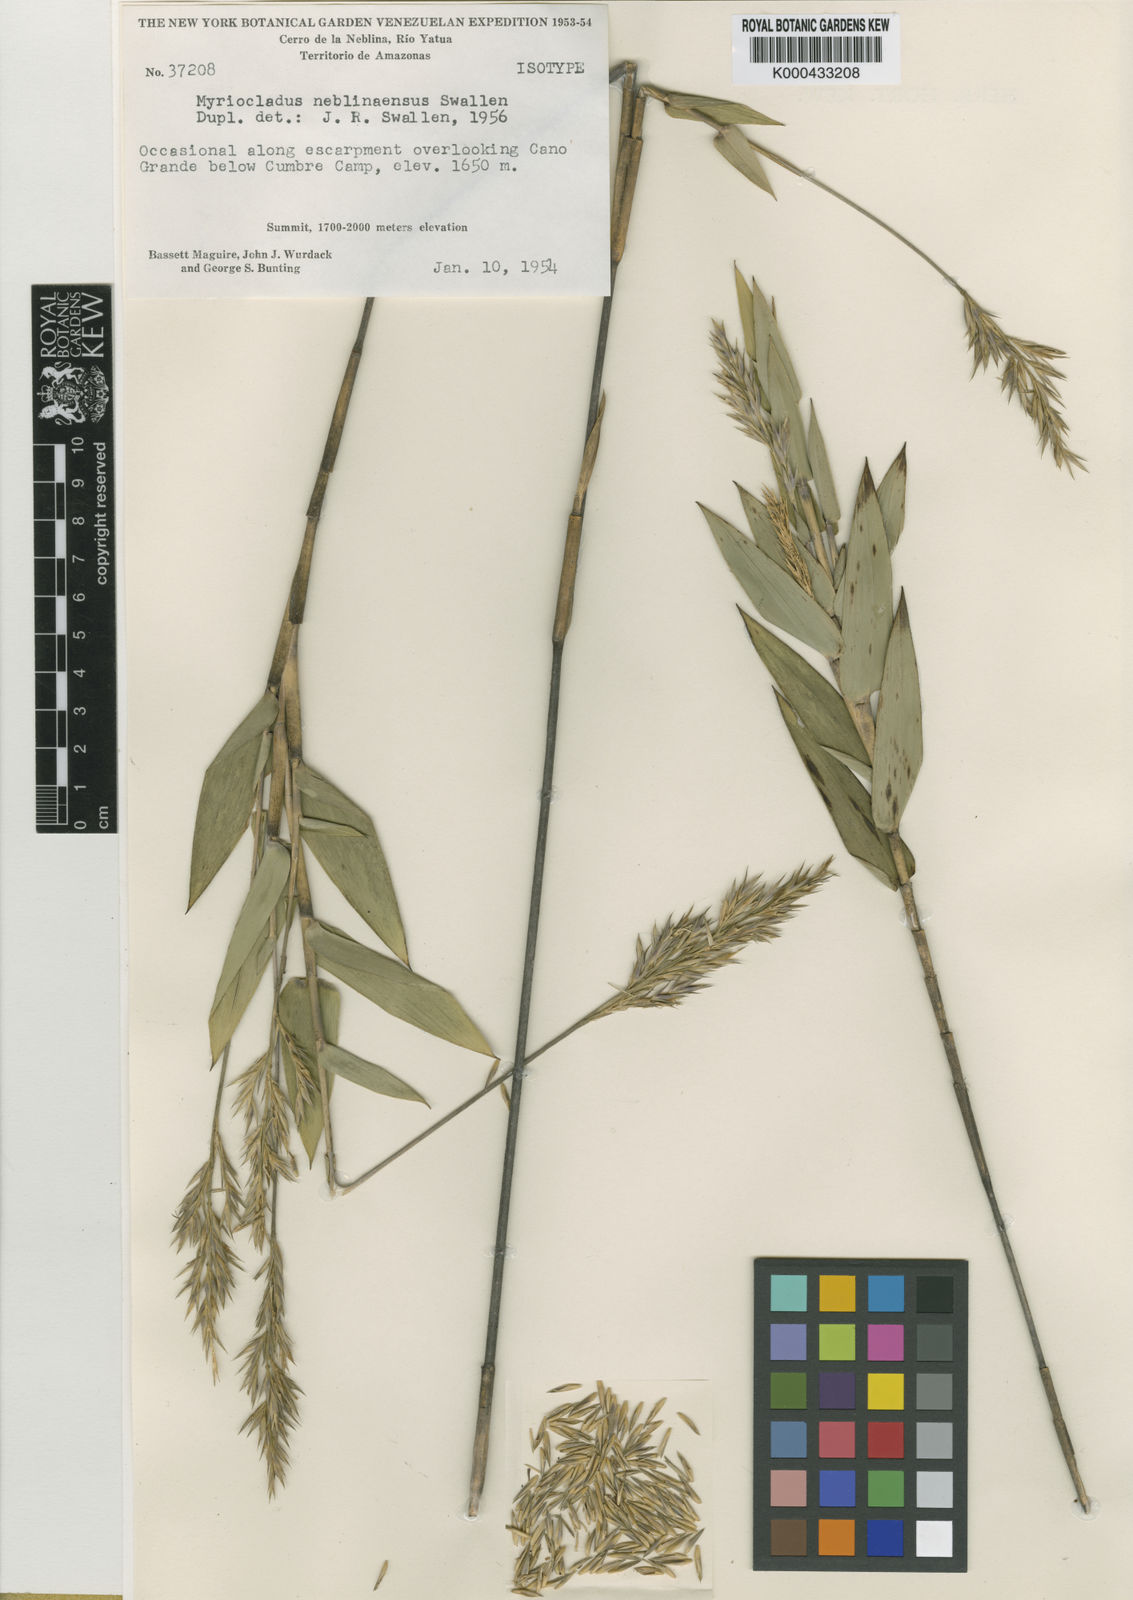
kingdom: Plantae
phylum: Tracheophyta
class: Liliopsida
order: Poales
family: Poaceae
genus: Myriocladus
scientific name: Myriocladus
